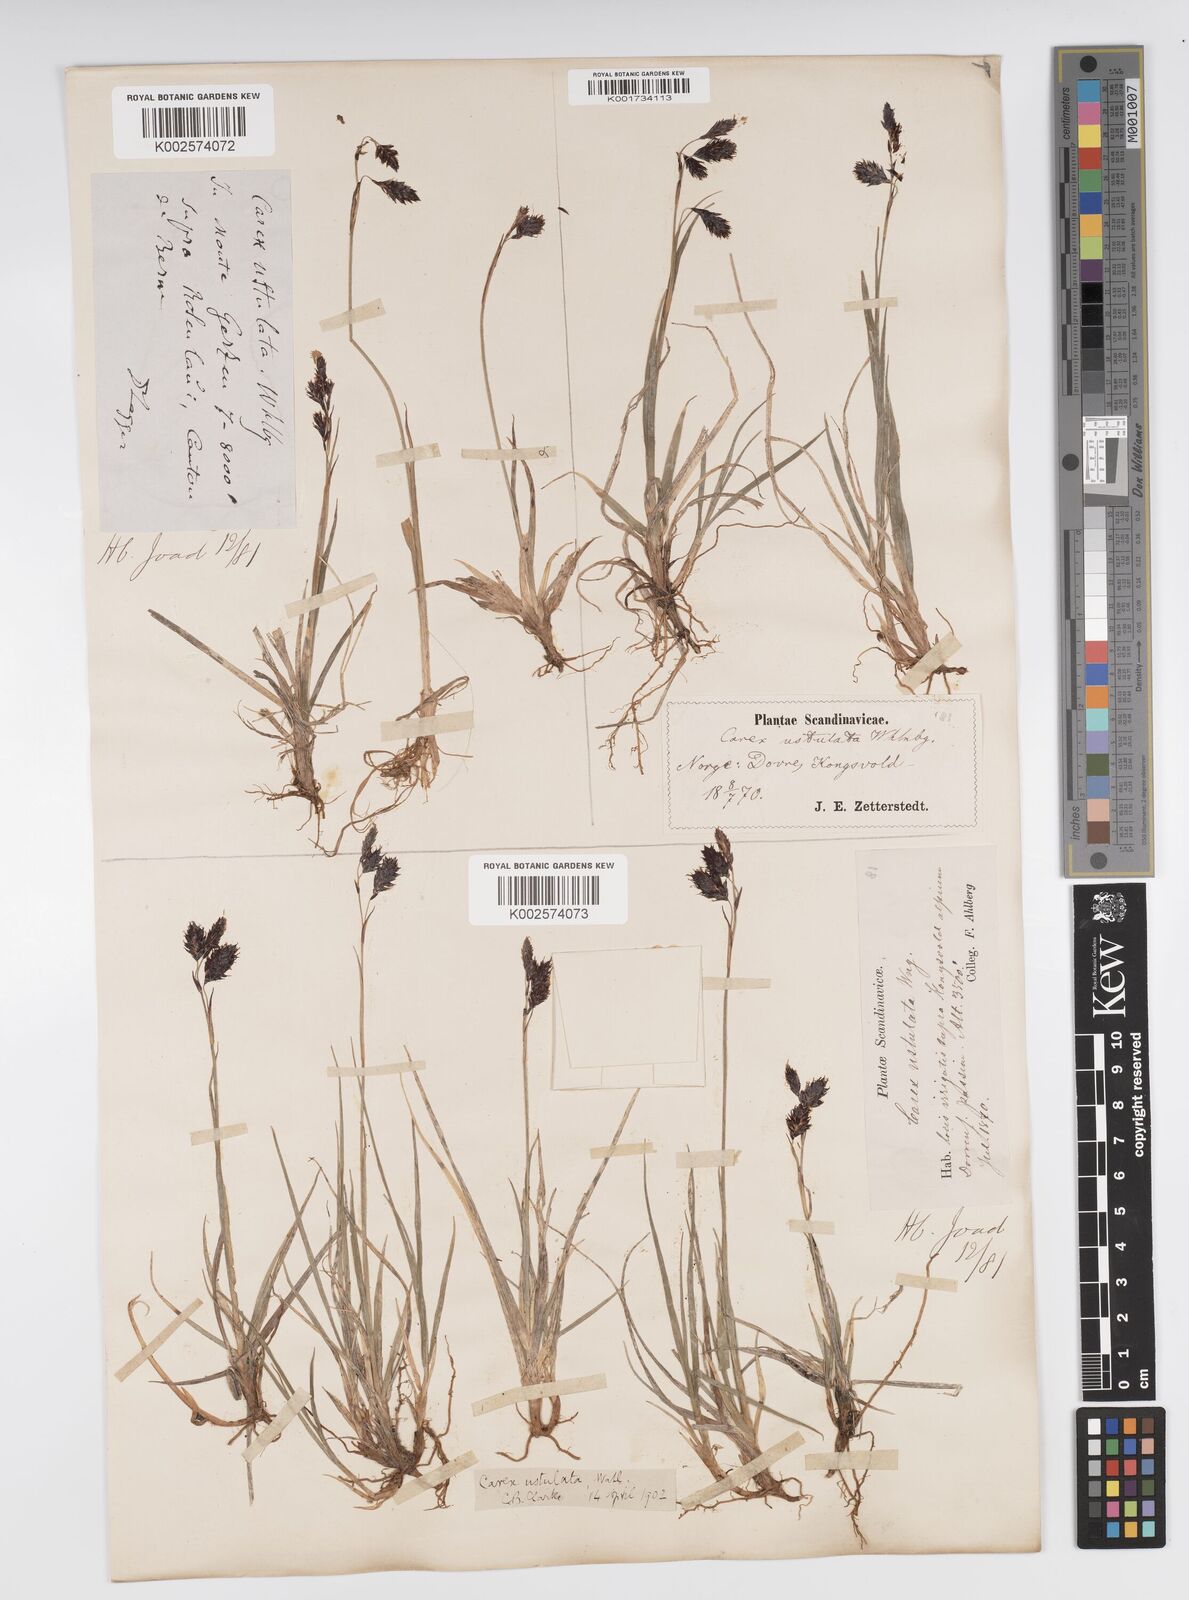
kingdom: Plantae
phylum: Tracheophyta
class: Liliopsida
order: Poales
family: Cyperaceae
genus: Carex
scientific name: Carex atrofusca
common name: Scorched alpine-sedge
